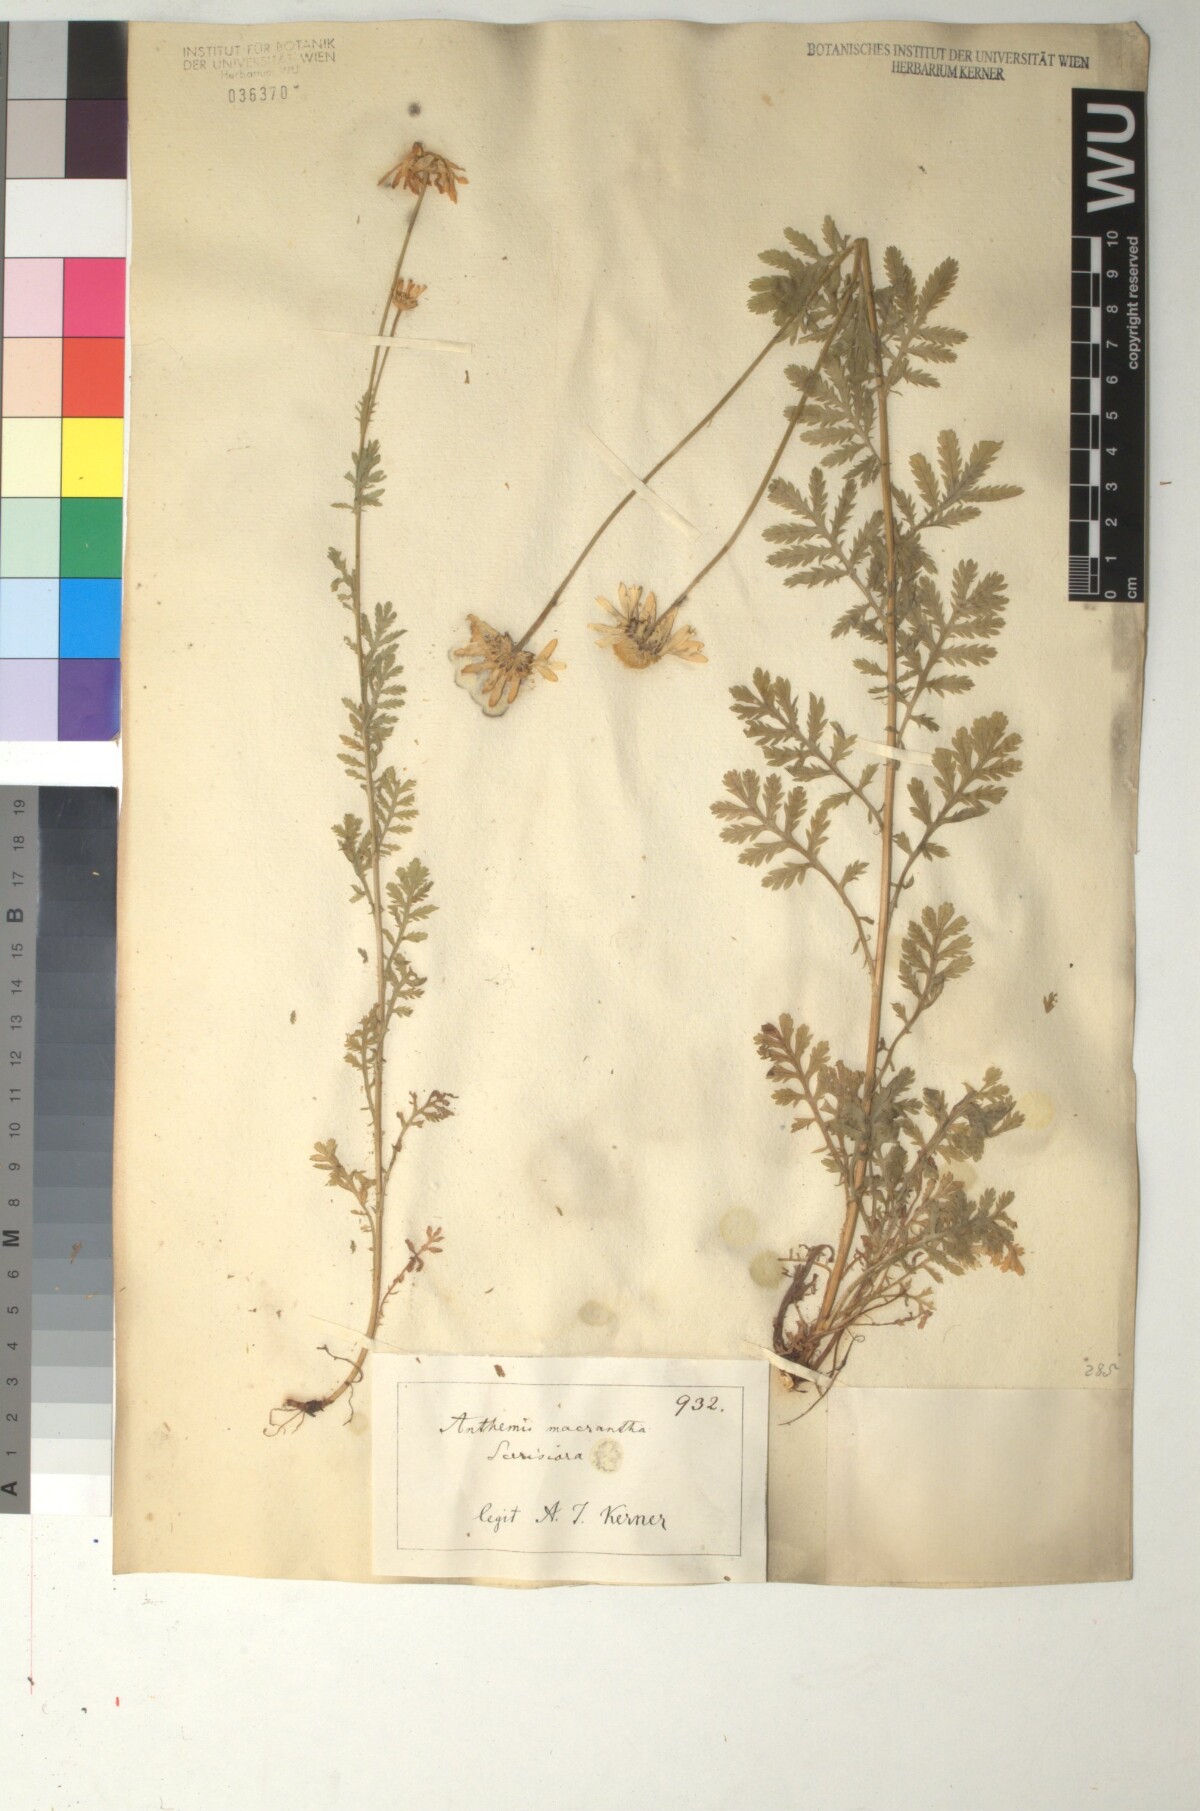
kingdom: Plantae
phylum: Tracheophyta
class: Magnoliopsida
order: Asterales
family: Asteraceae
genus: Cota
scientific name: Cota macrantha
